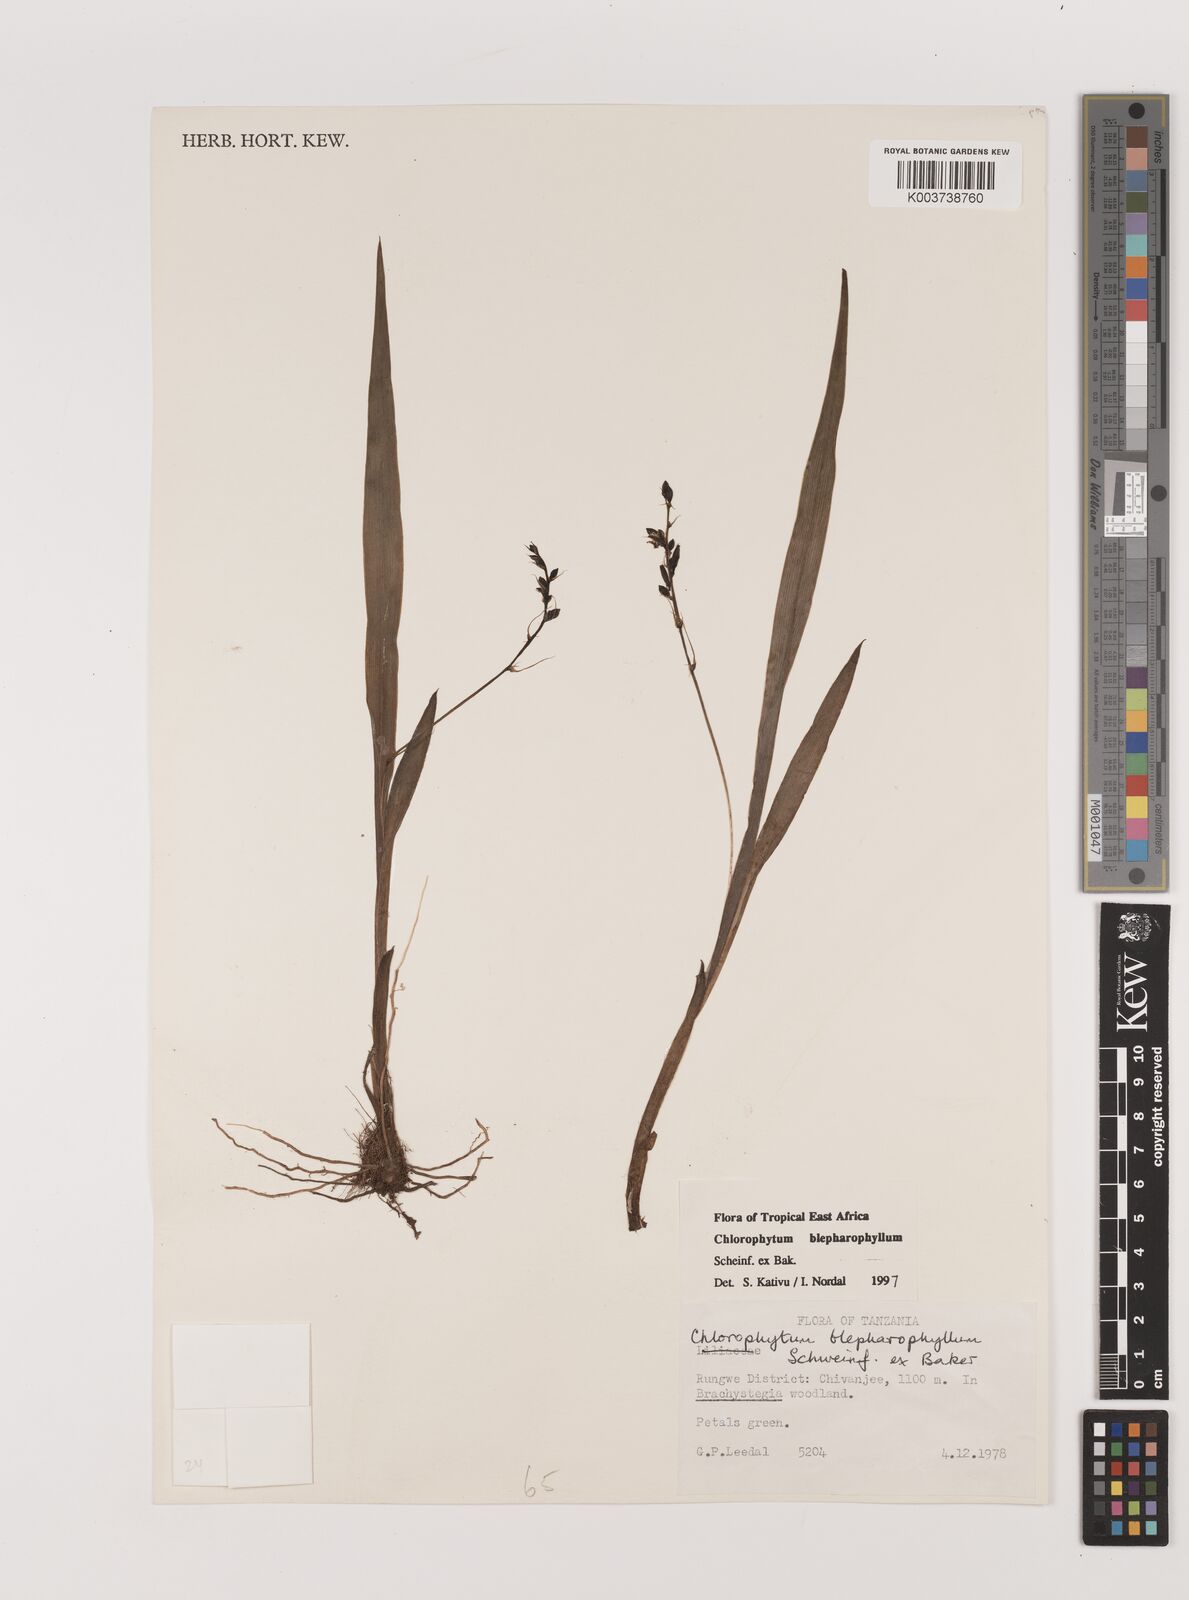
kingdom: Plantae
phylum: Tracheophyta
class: Liliopsida
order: Asparagales
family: Asparagaceae
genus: Chlorophytum
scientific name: Chlorophytum blepharophyllum
